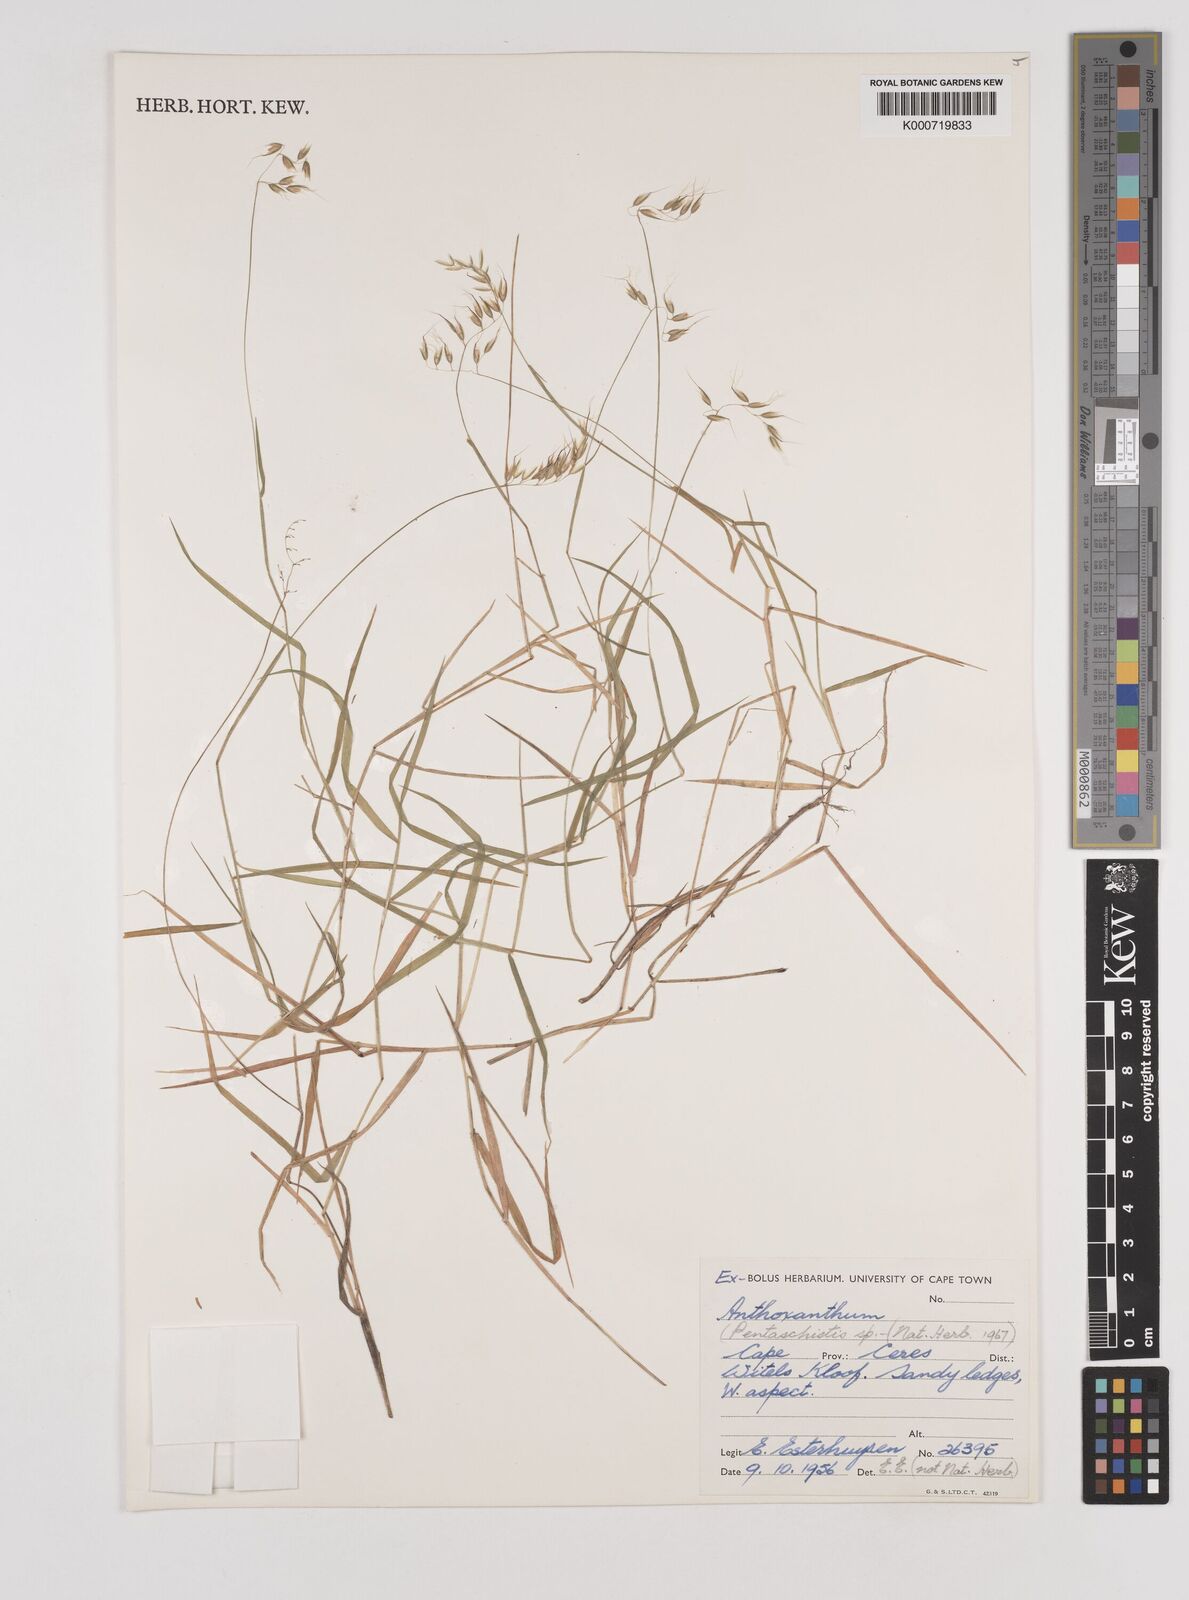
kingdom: Plantae
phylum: Tracheophyta
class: Liliopsida
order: Poales
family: Poaceae
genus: Pentaschistis
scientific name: Pentaschistis
